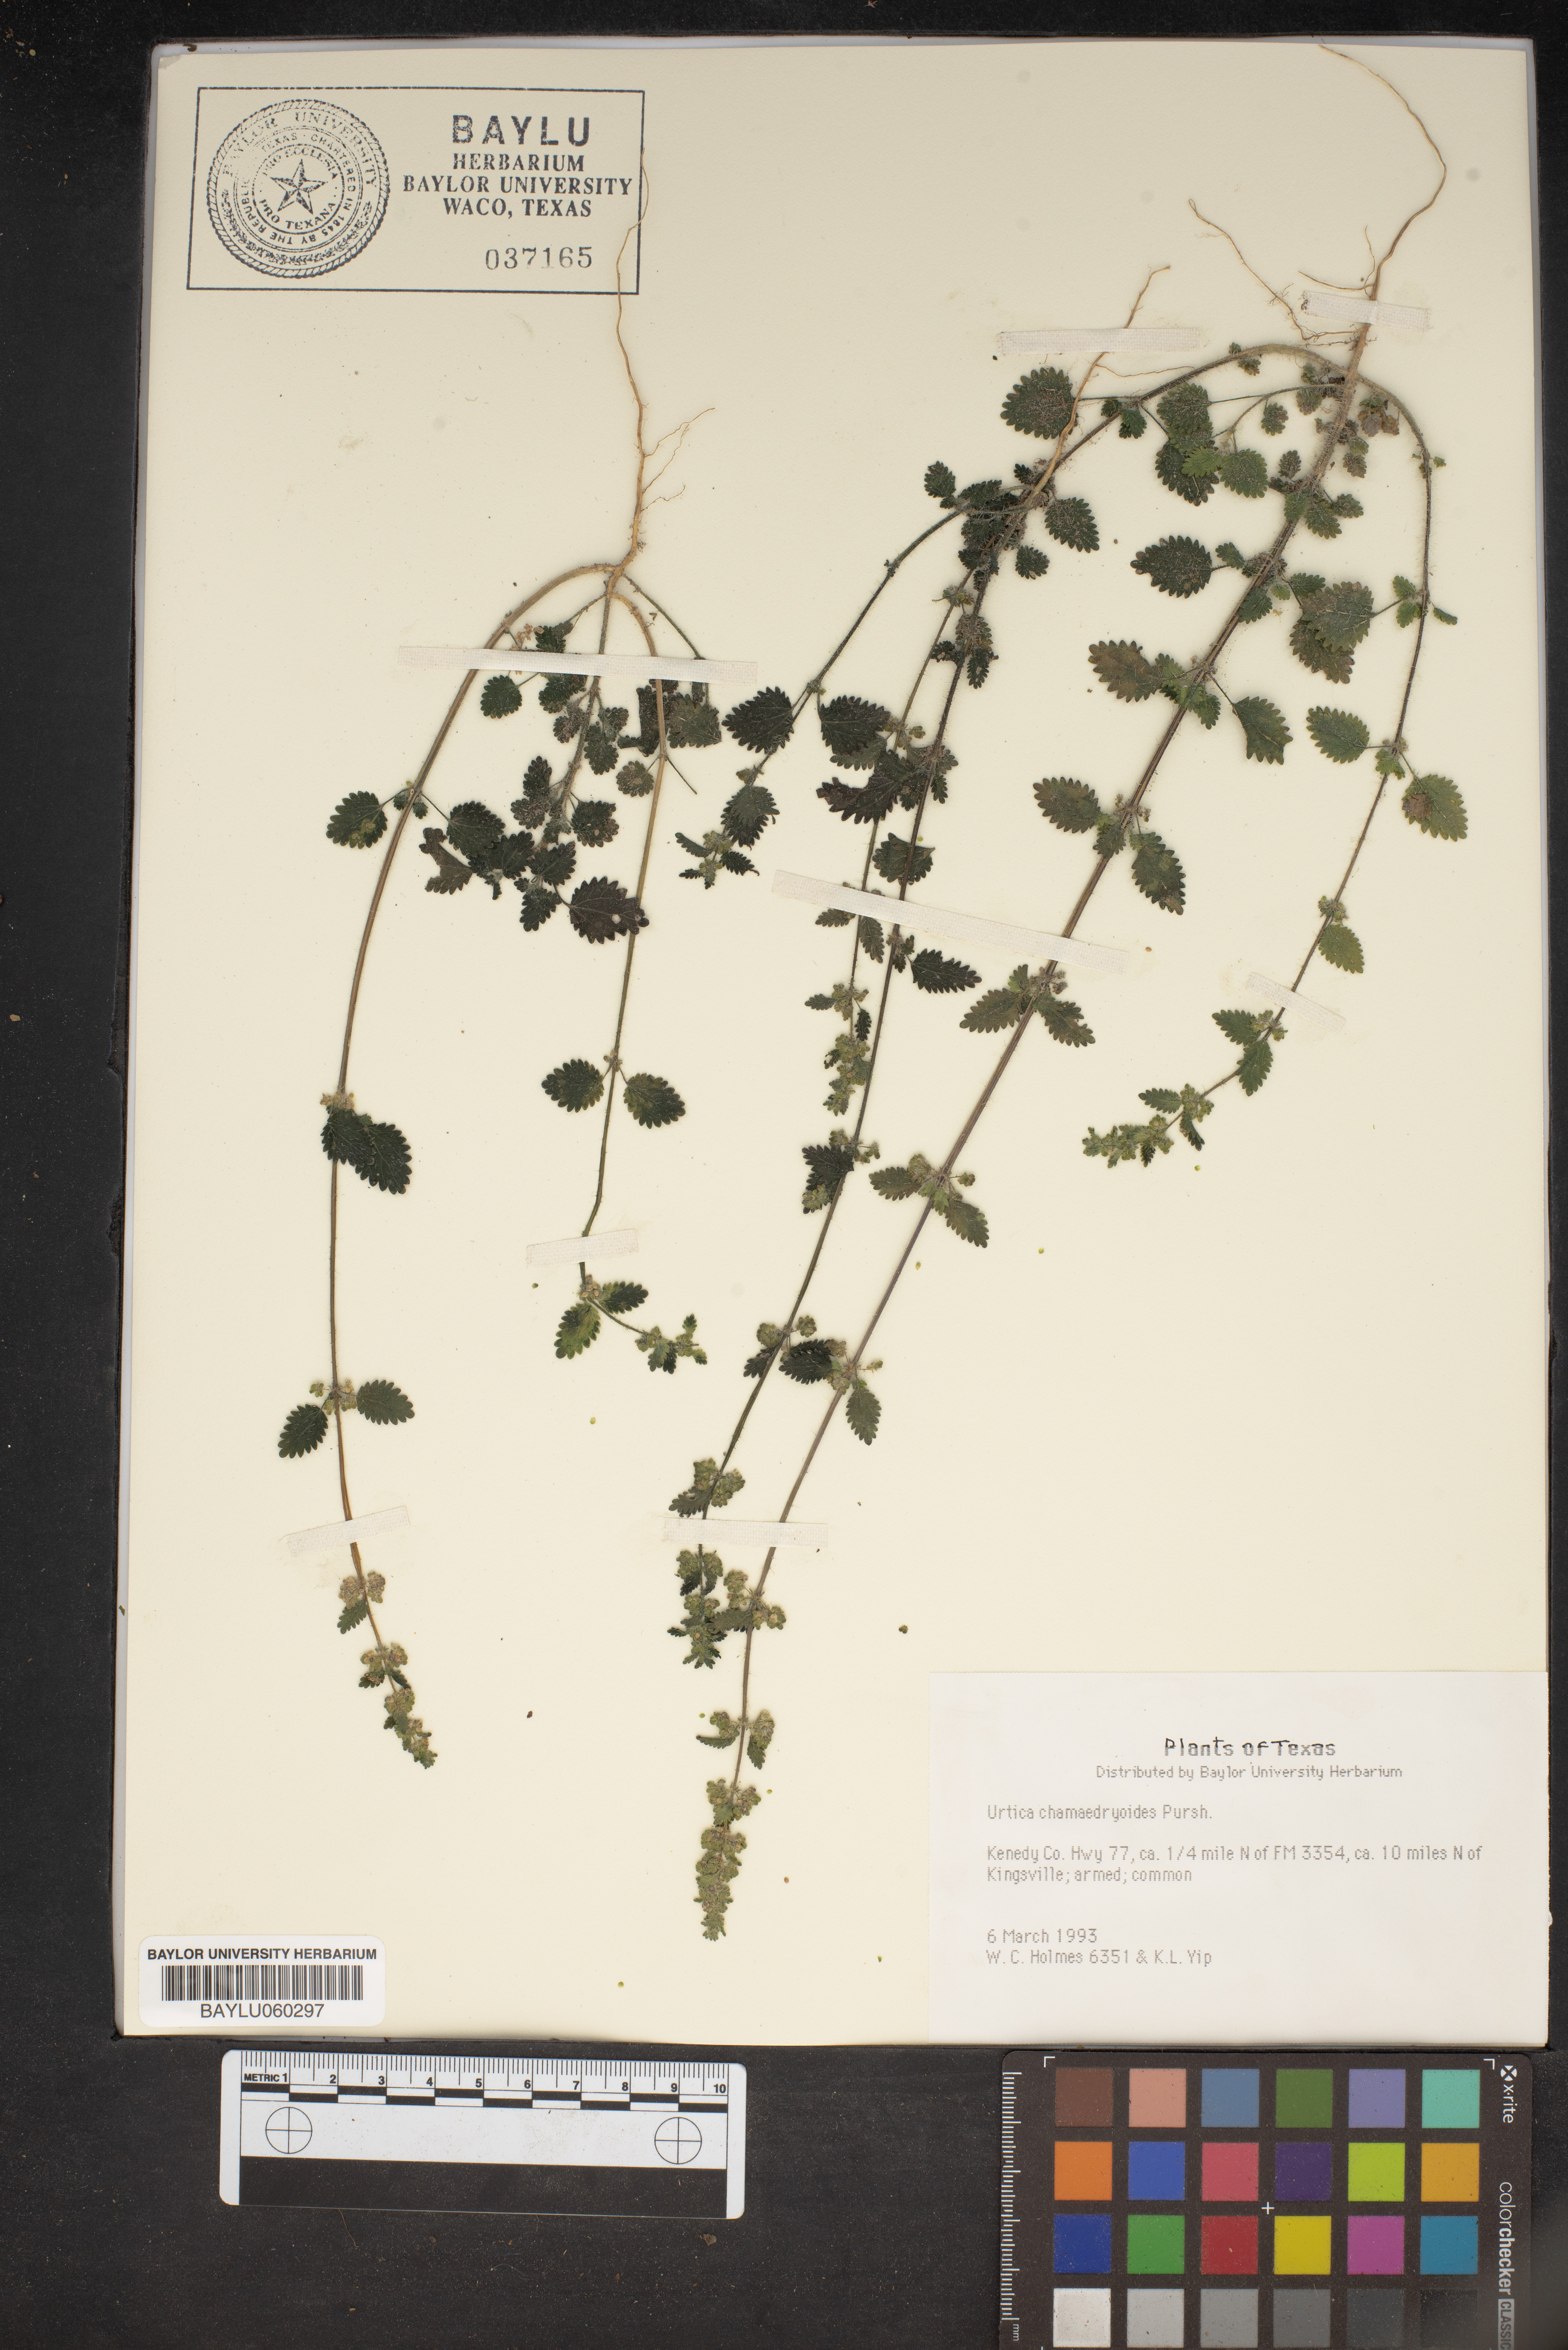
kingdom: Plantae
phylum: Tracheophyta
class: Magnoliopsida
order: Rosales
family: Urticaceae
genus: Urtica
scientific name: Urtica chamaedryoides
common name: Heart-leaf nettle
